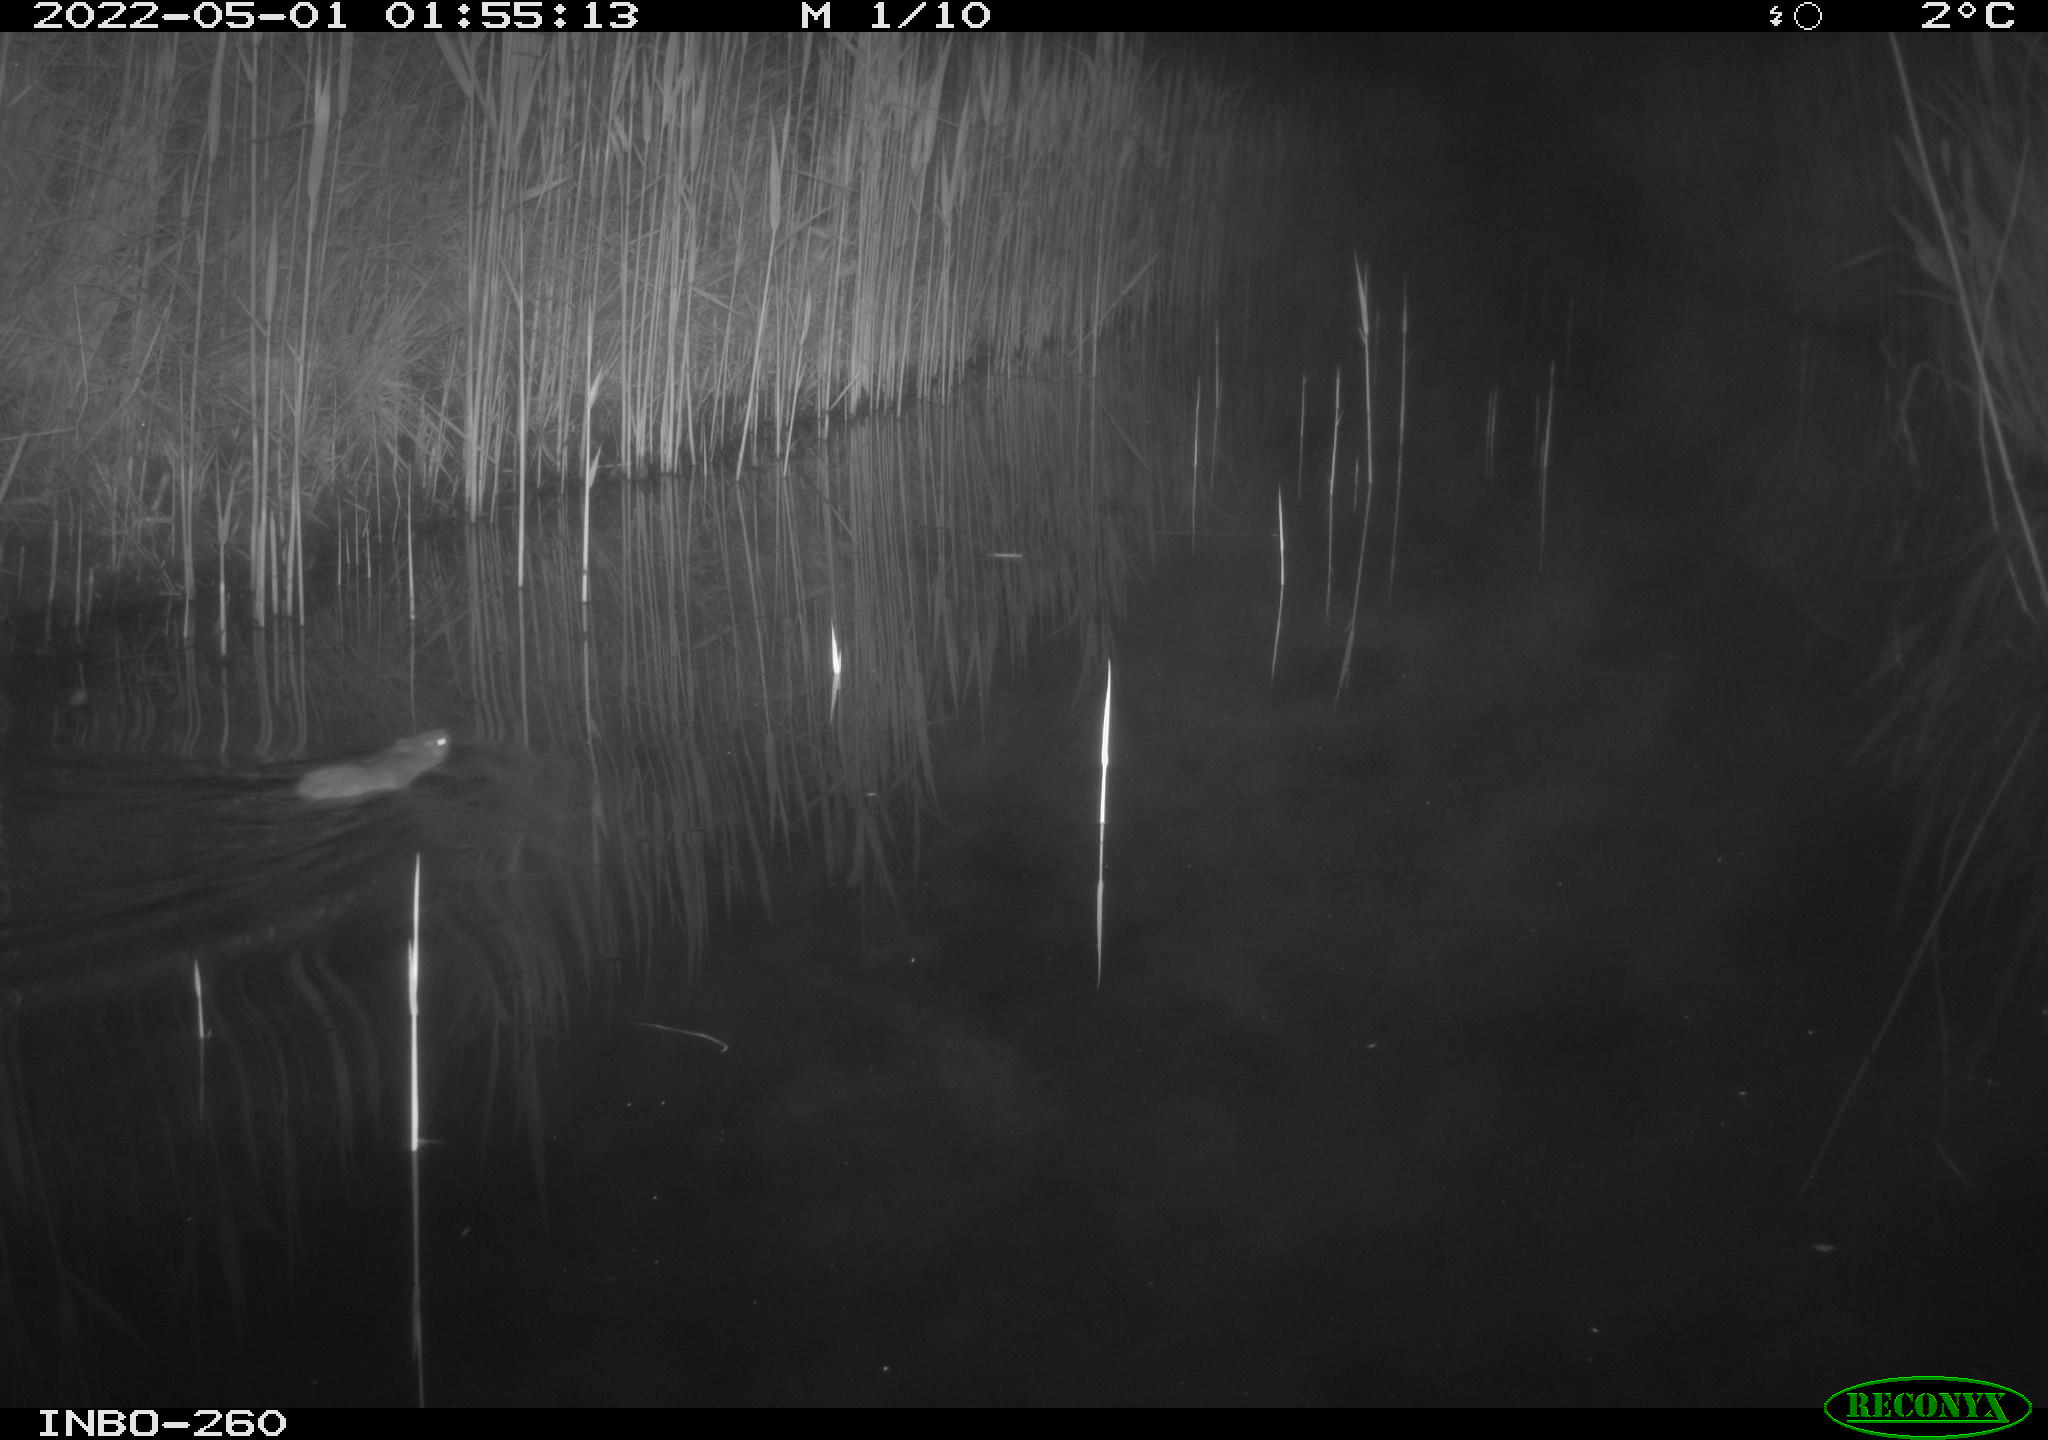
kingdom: Animalia
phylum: Chordata
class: Mammalia
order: Rodentia
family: Cricetidae
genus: Ondatra
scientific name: Ondatra zibethicus
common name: Muskrat
